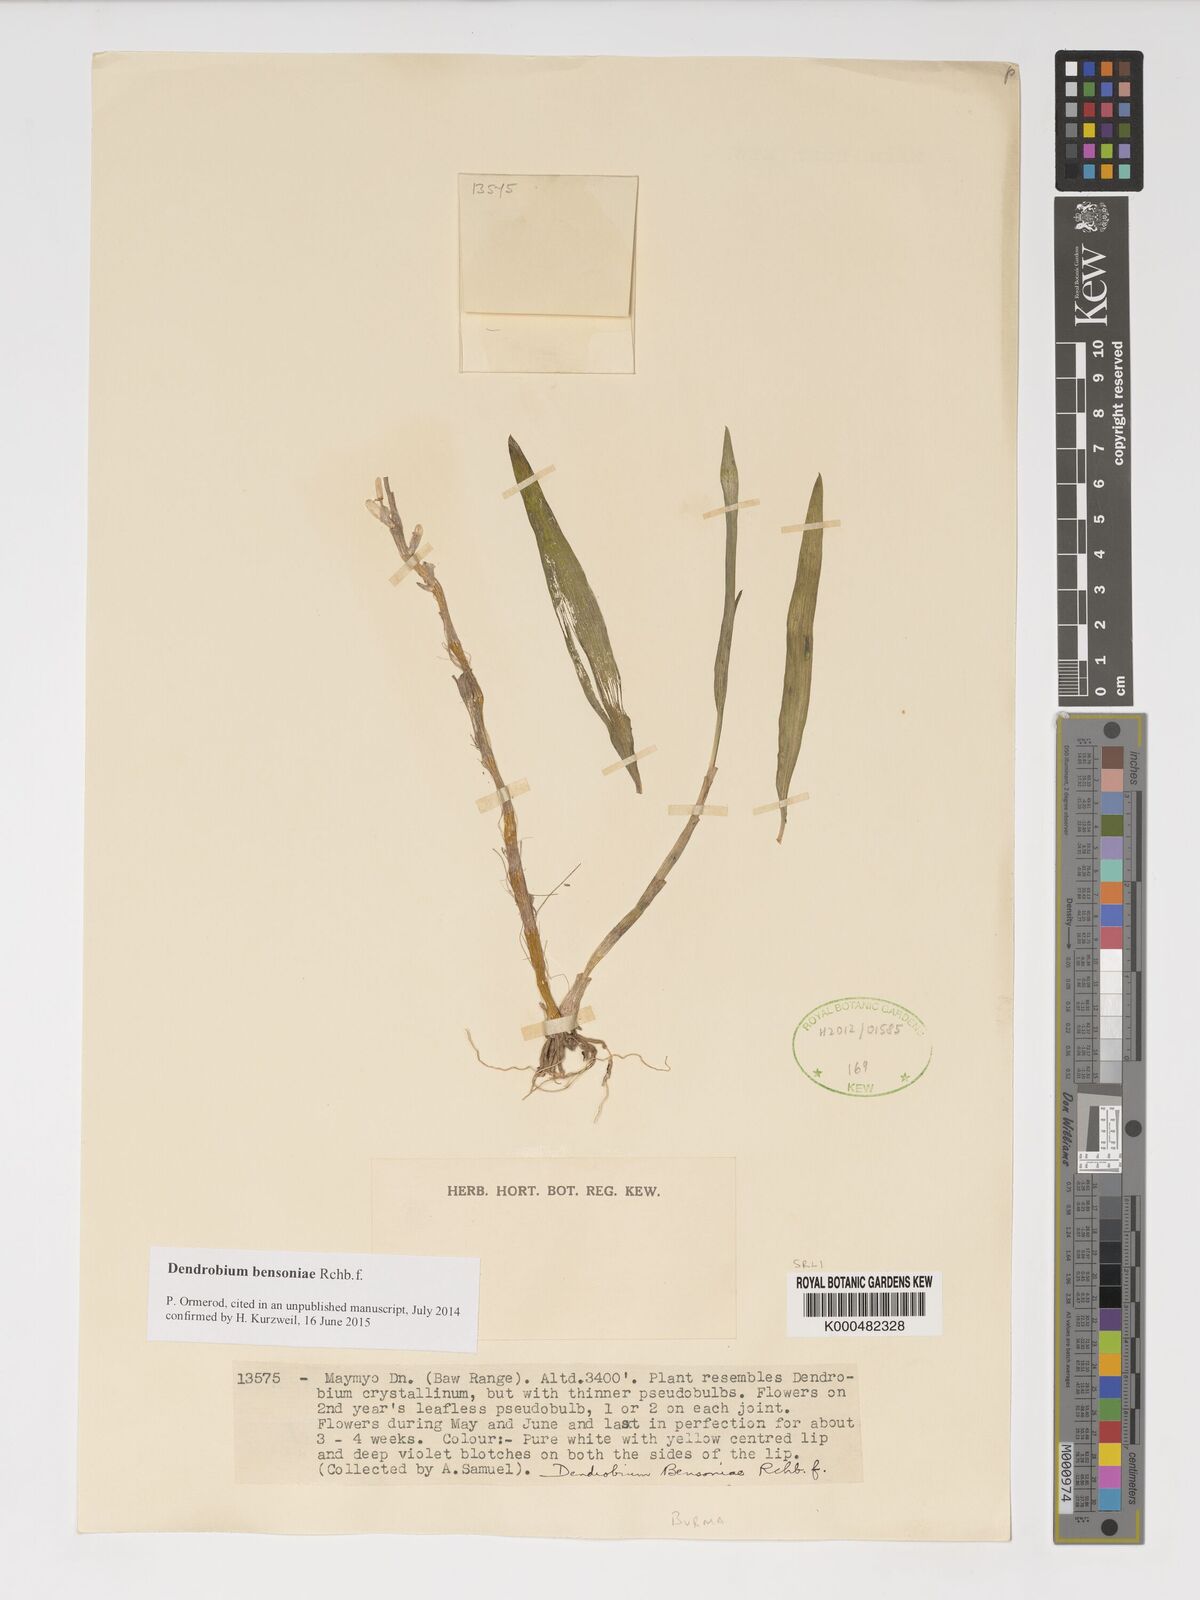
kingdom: Plantae
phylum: Tracheophyta
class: Liliopsida
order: Asparagales
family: Orchidaceae
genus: Dendrobium
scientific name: Dendrobium bensoniae
